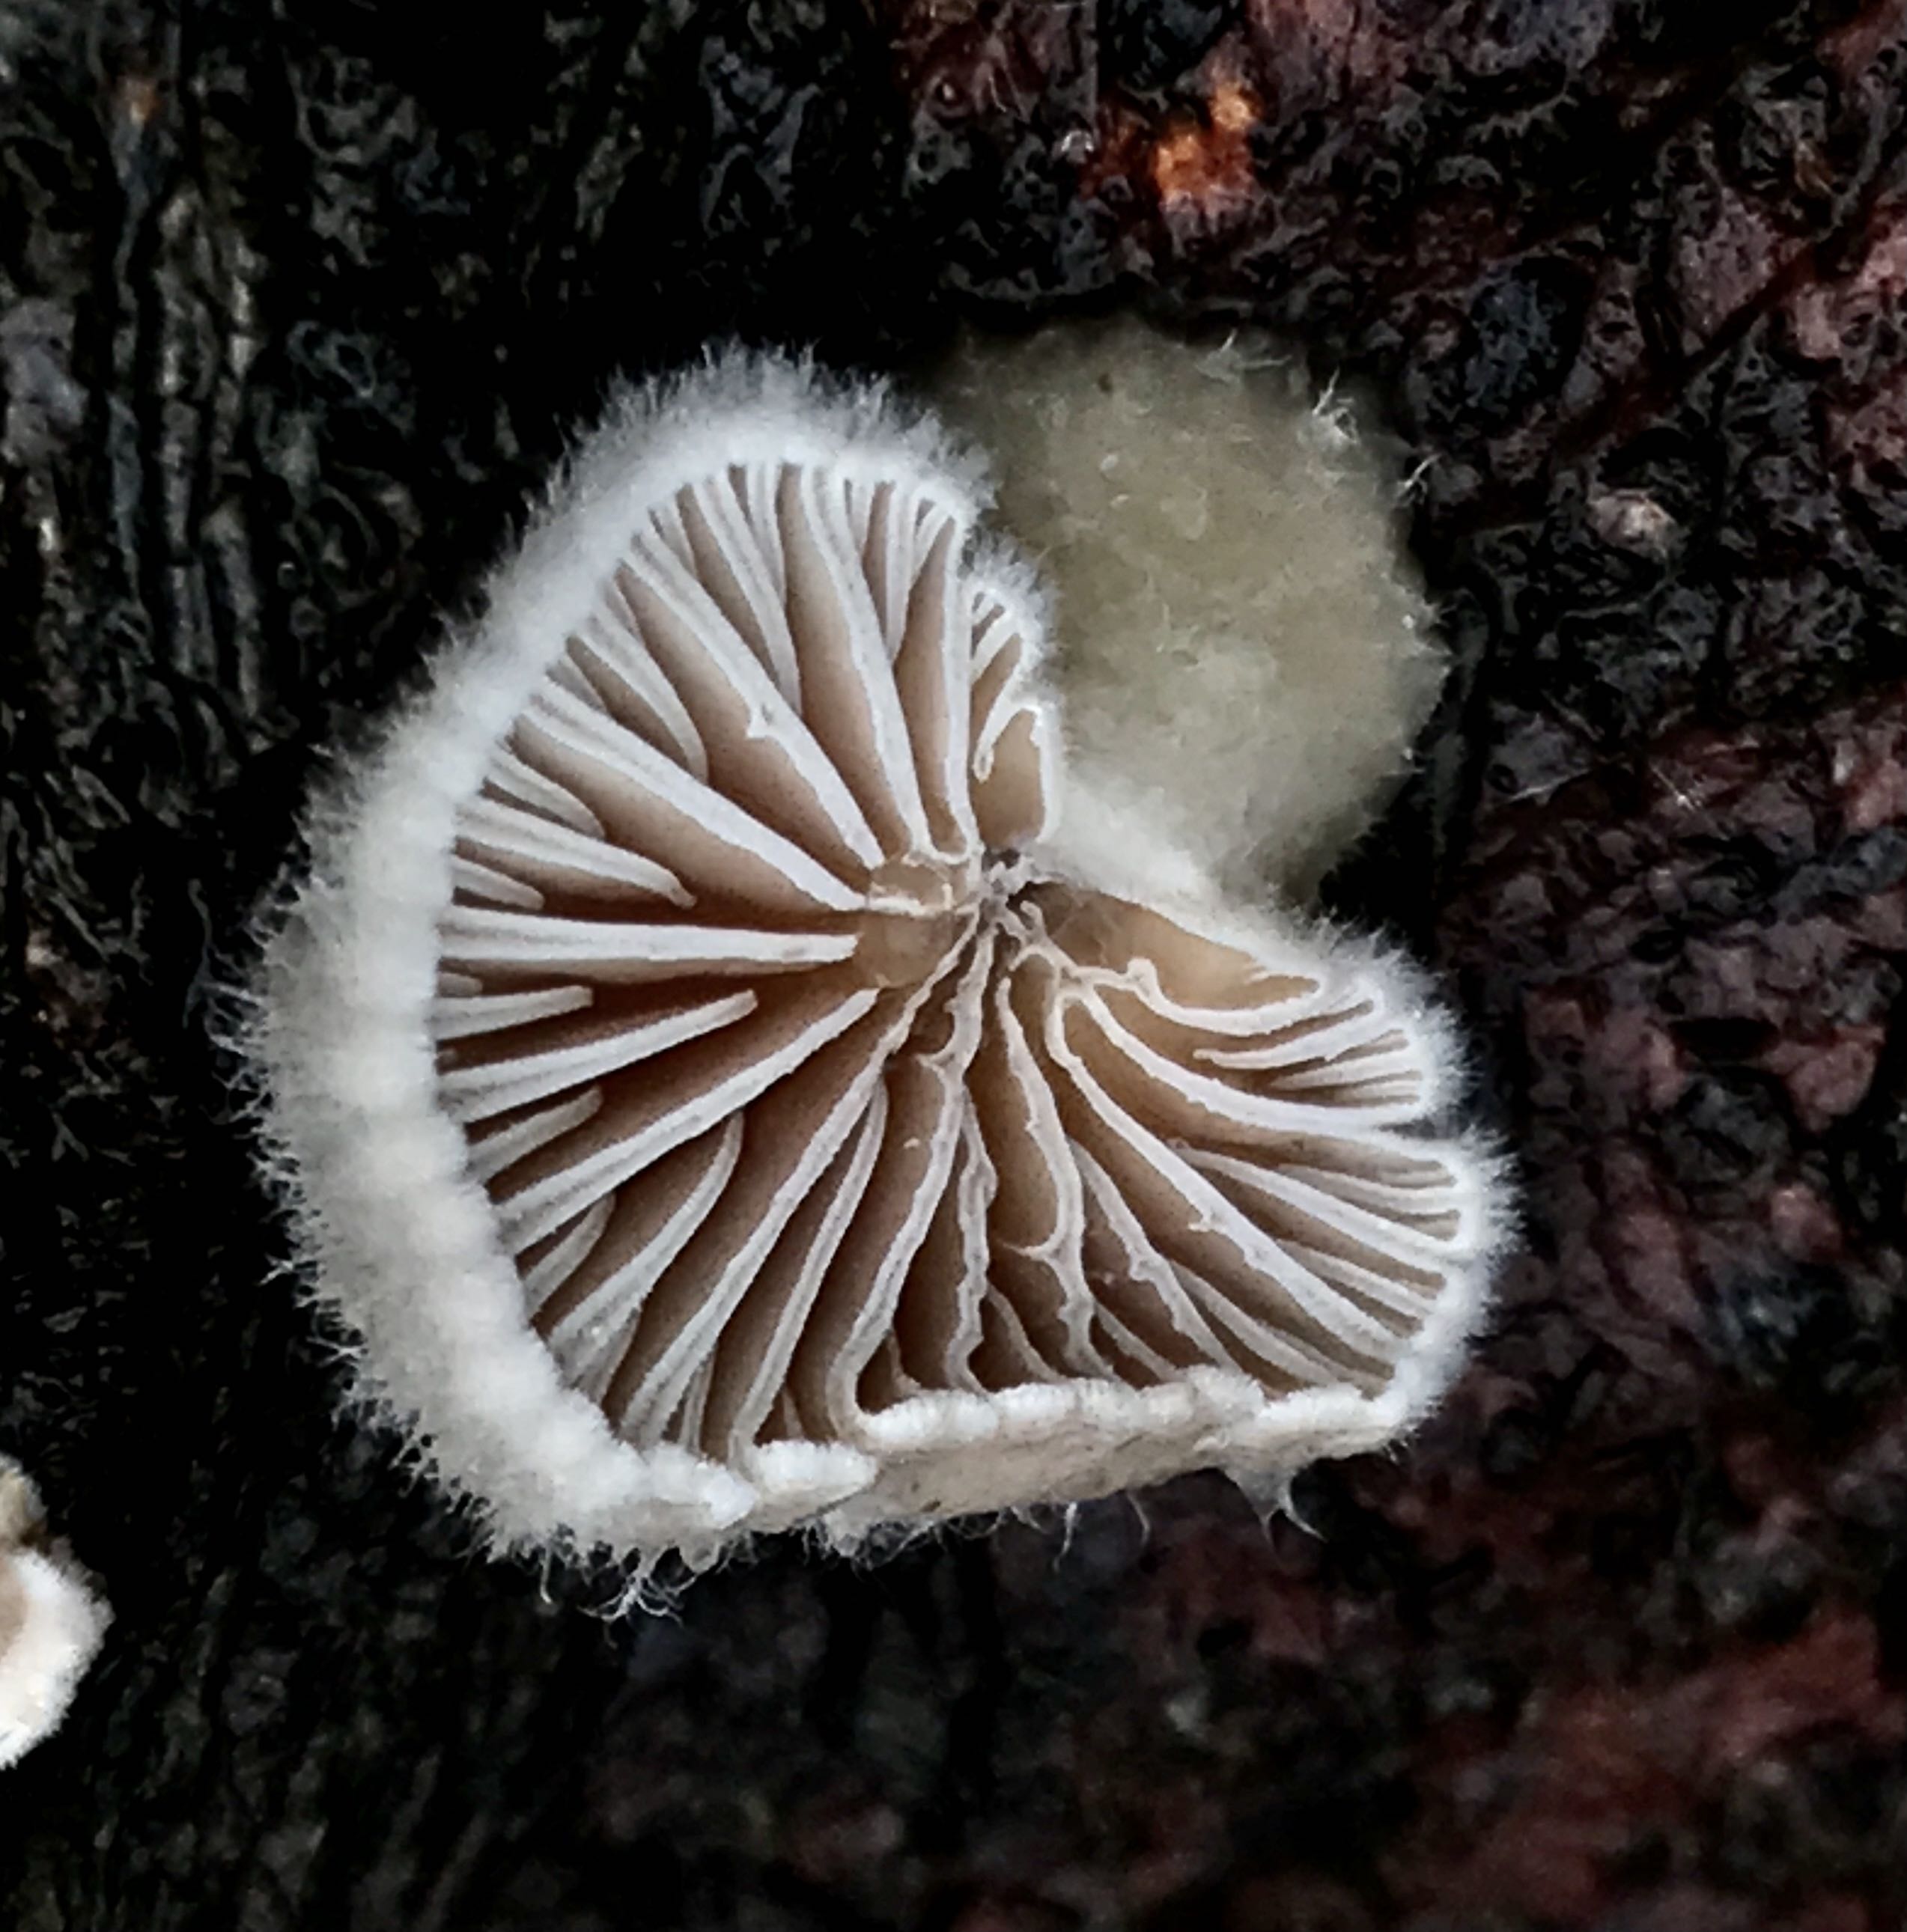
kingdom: Fungi
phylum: Basidiomycota
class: Agaricomycetes
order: Agaricales
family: Schizophyllaceae
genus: Schizophyllum
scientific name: Schizophyllum commune
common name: kløvblad
